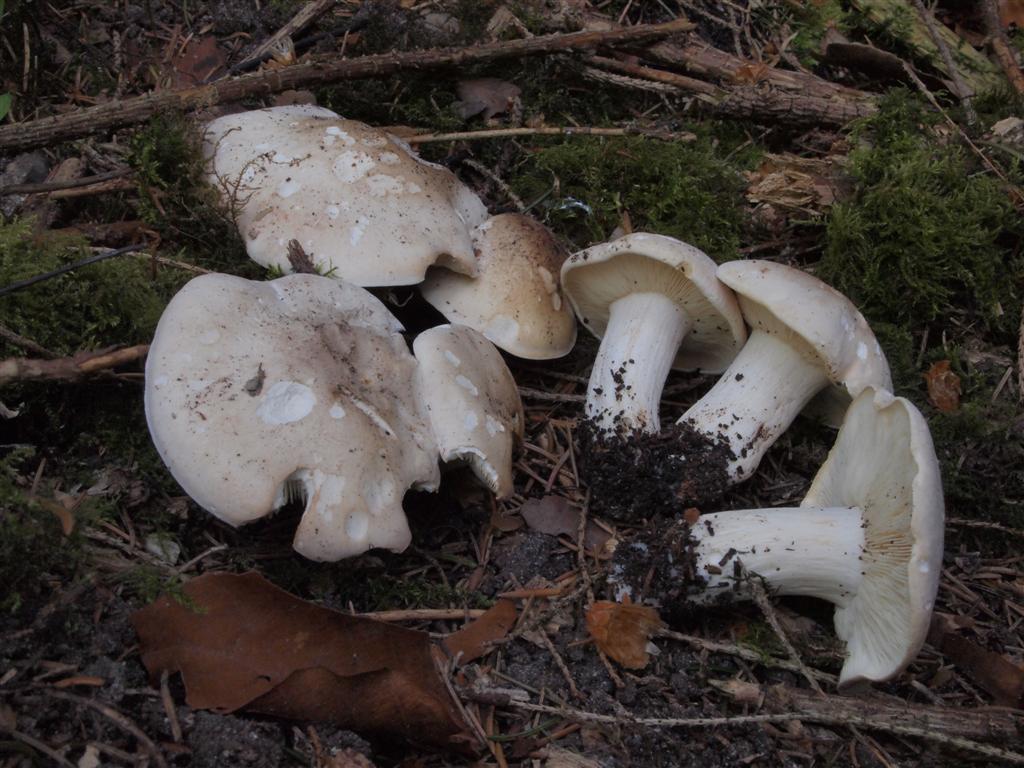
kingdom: Fungi
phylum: Basidiomycota
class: Agaricomycetes
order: Agaricales
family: Lyophyllaceae
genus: Calocybe
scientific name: Calocybe gambosa
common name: vårmusseron
